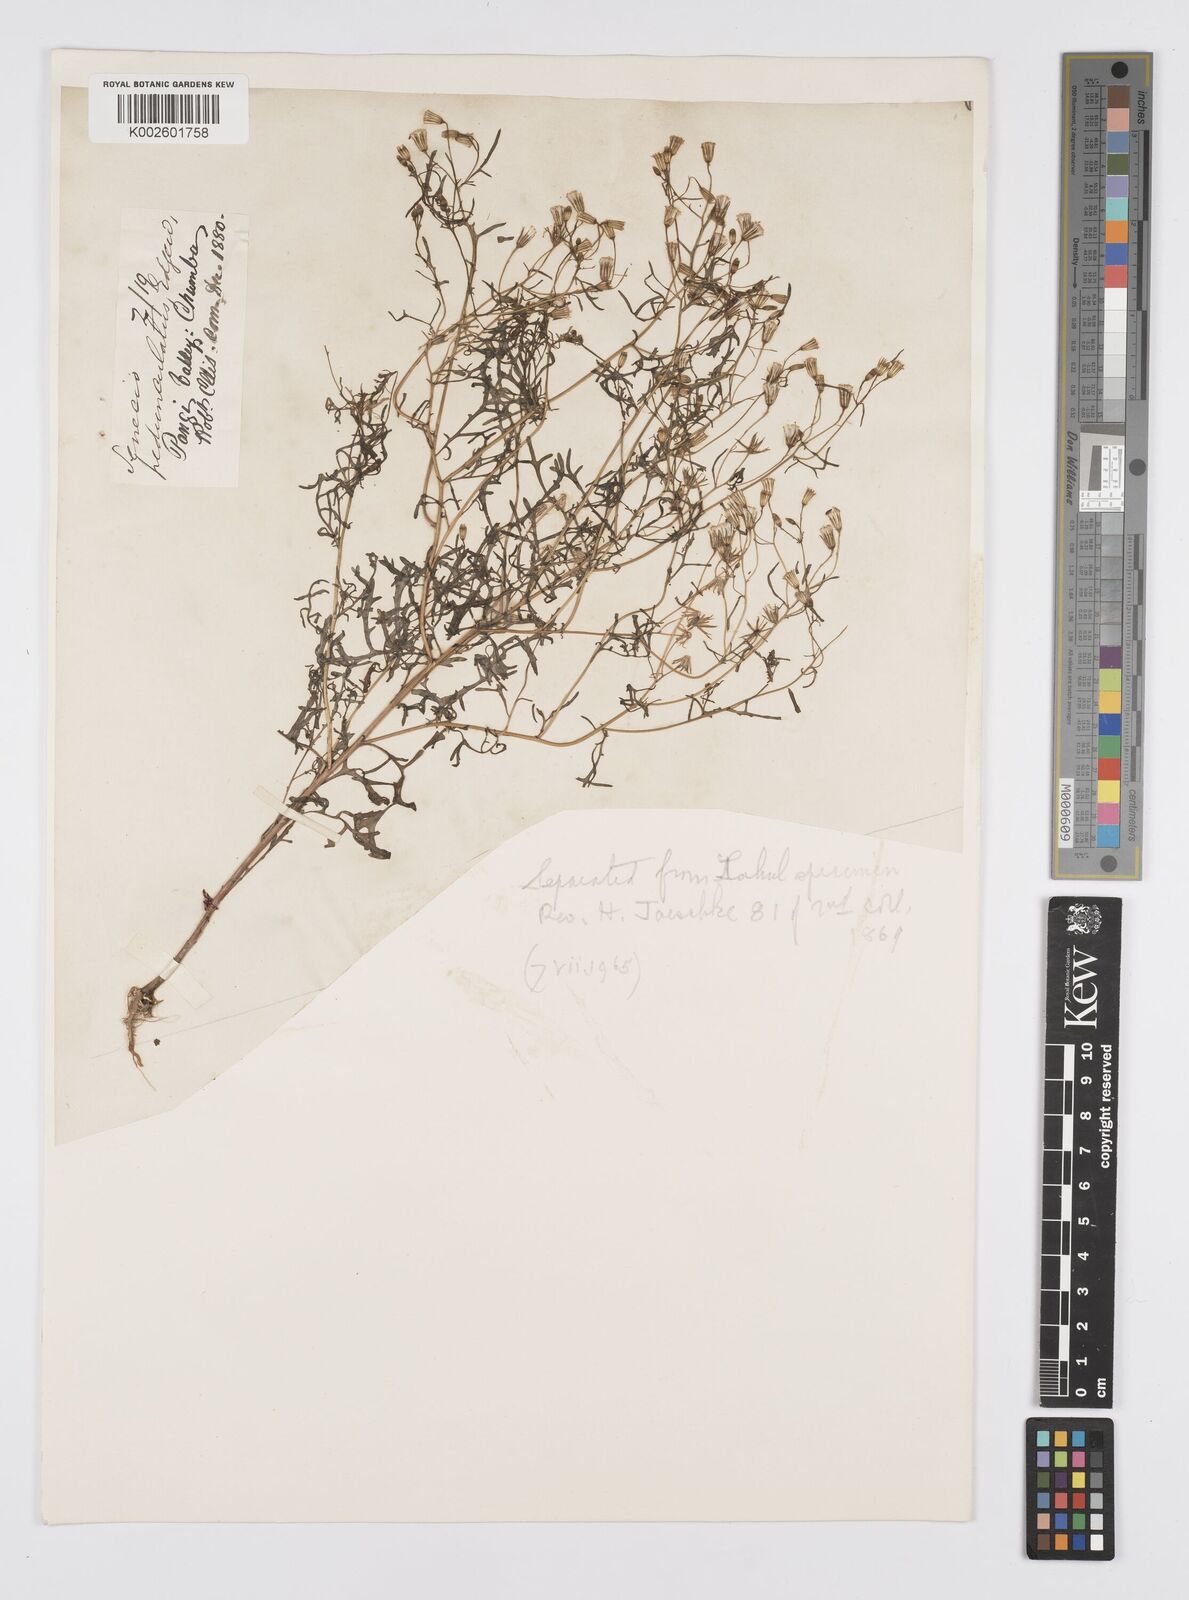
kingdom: Plantae
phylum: Tracheophyta
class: Magnoliopsida
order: Asterales
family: Asteraceae
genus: Senecio
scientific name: Senecio krascheninnikovii
